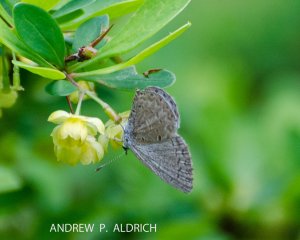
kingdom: Animalia
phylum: Arthropoda
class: Insecta
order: Lepidoptera
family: Lycaenidae
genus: Celastrina
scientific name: Celastrina lucia
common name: Northern Spring Azure
